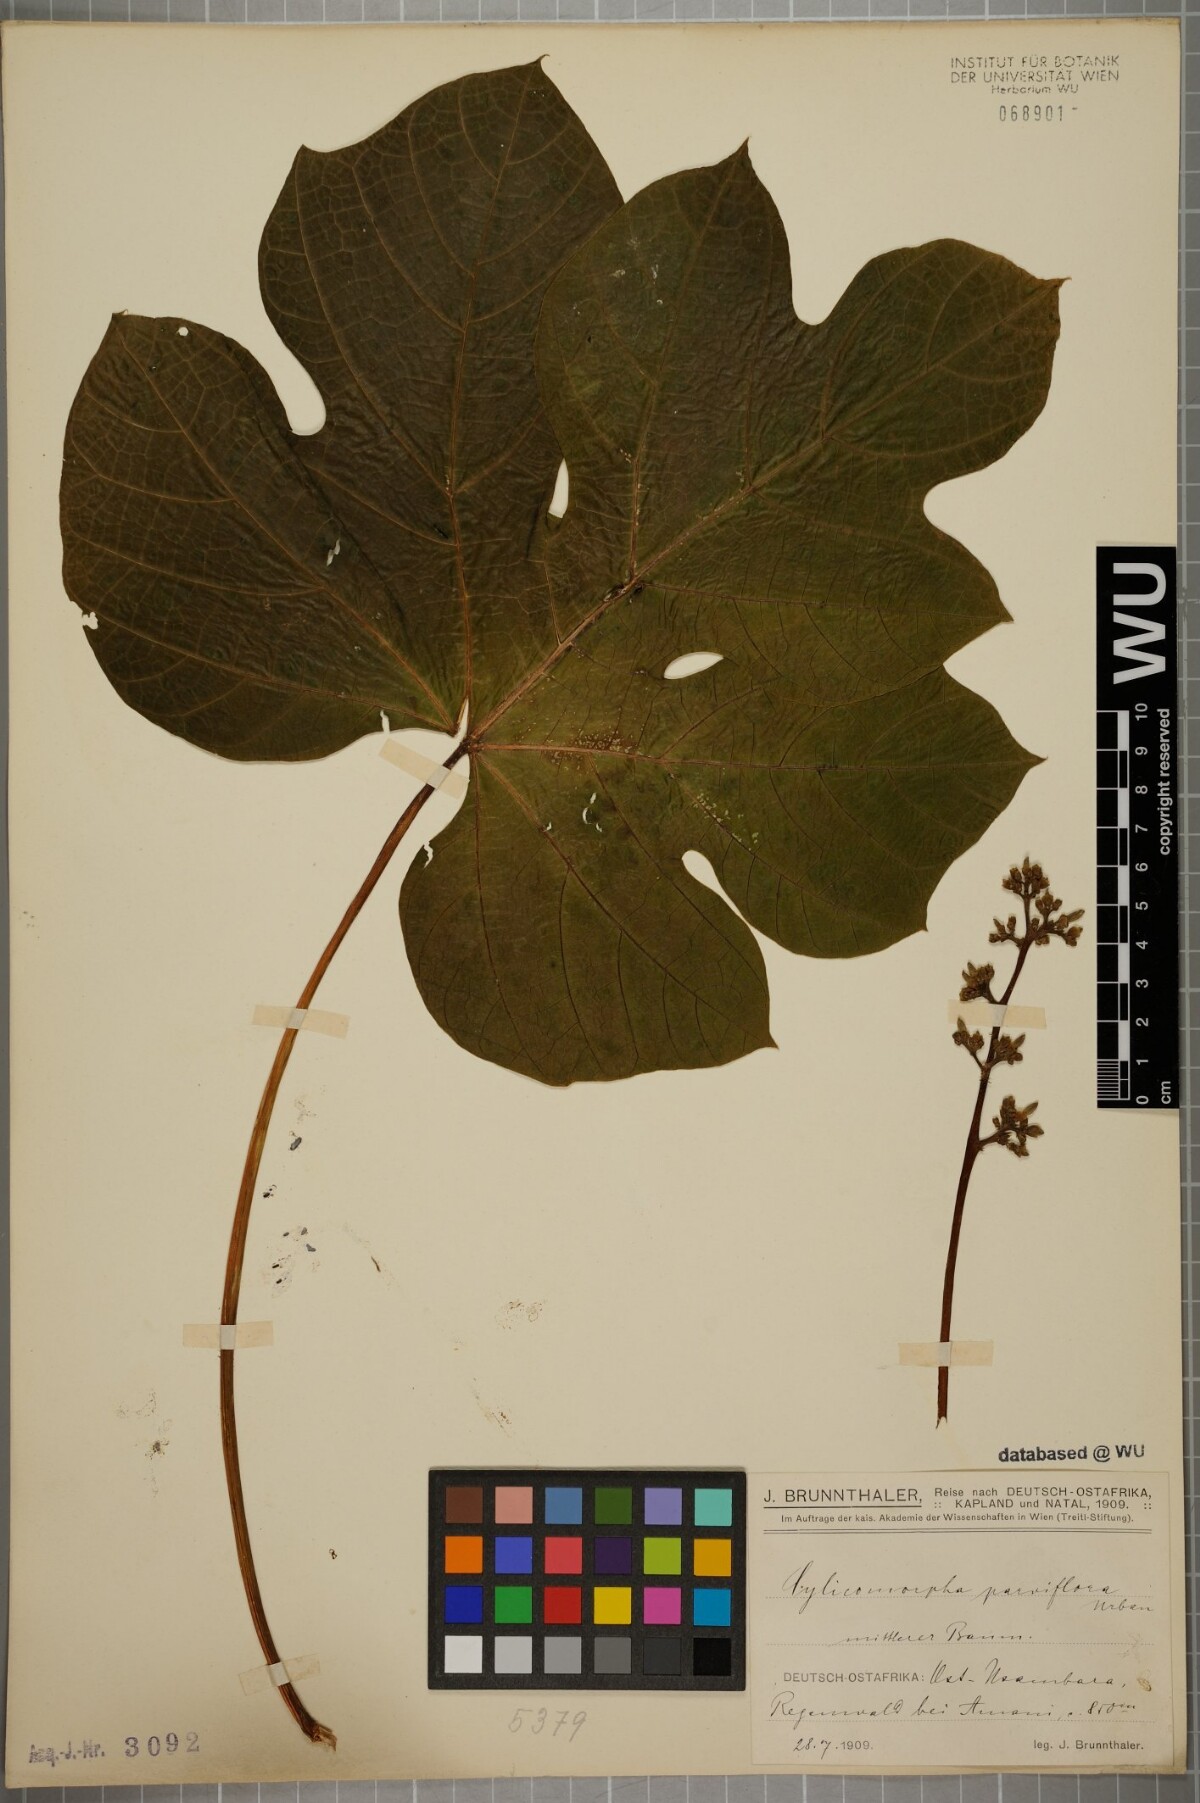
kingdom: Plantae
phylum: Tracheophyta
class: Magnoliopsida
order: Brassicales
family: Caricaceae
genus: Cylicomorpha
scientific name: Cylicomorpha parviflora
